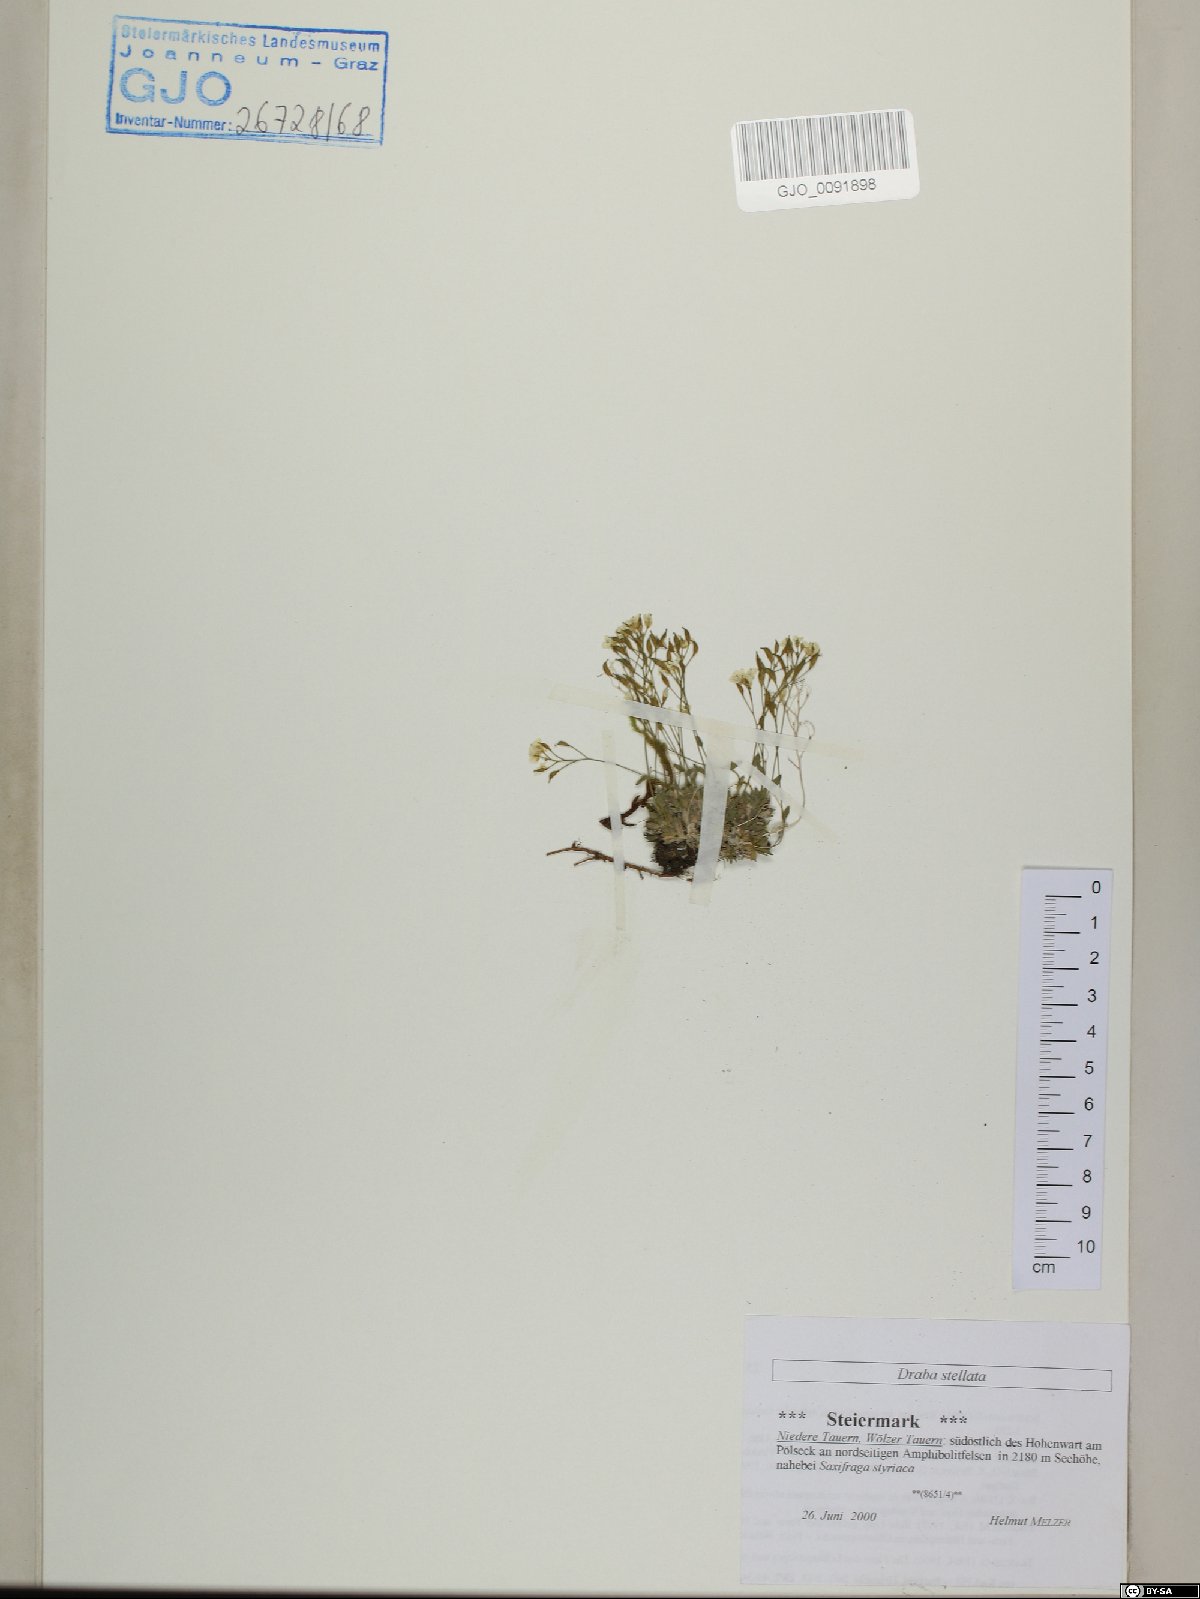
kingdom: Plantae
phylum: Tracheophyta
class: Magnoliopsida
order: Brassicales
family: Brassicaceae
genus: Draba
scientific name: Draba stellata
